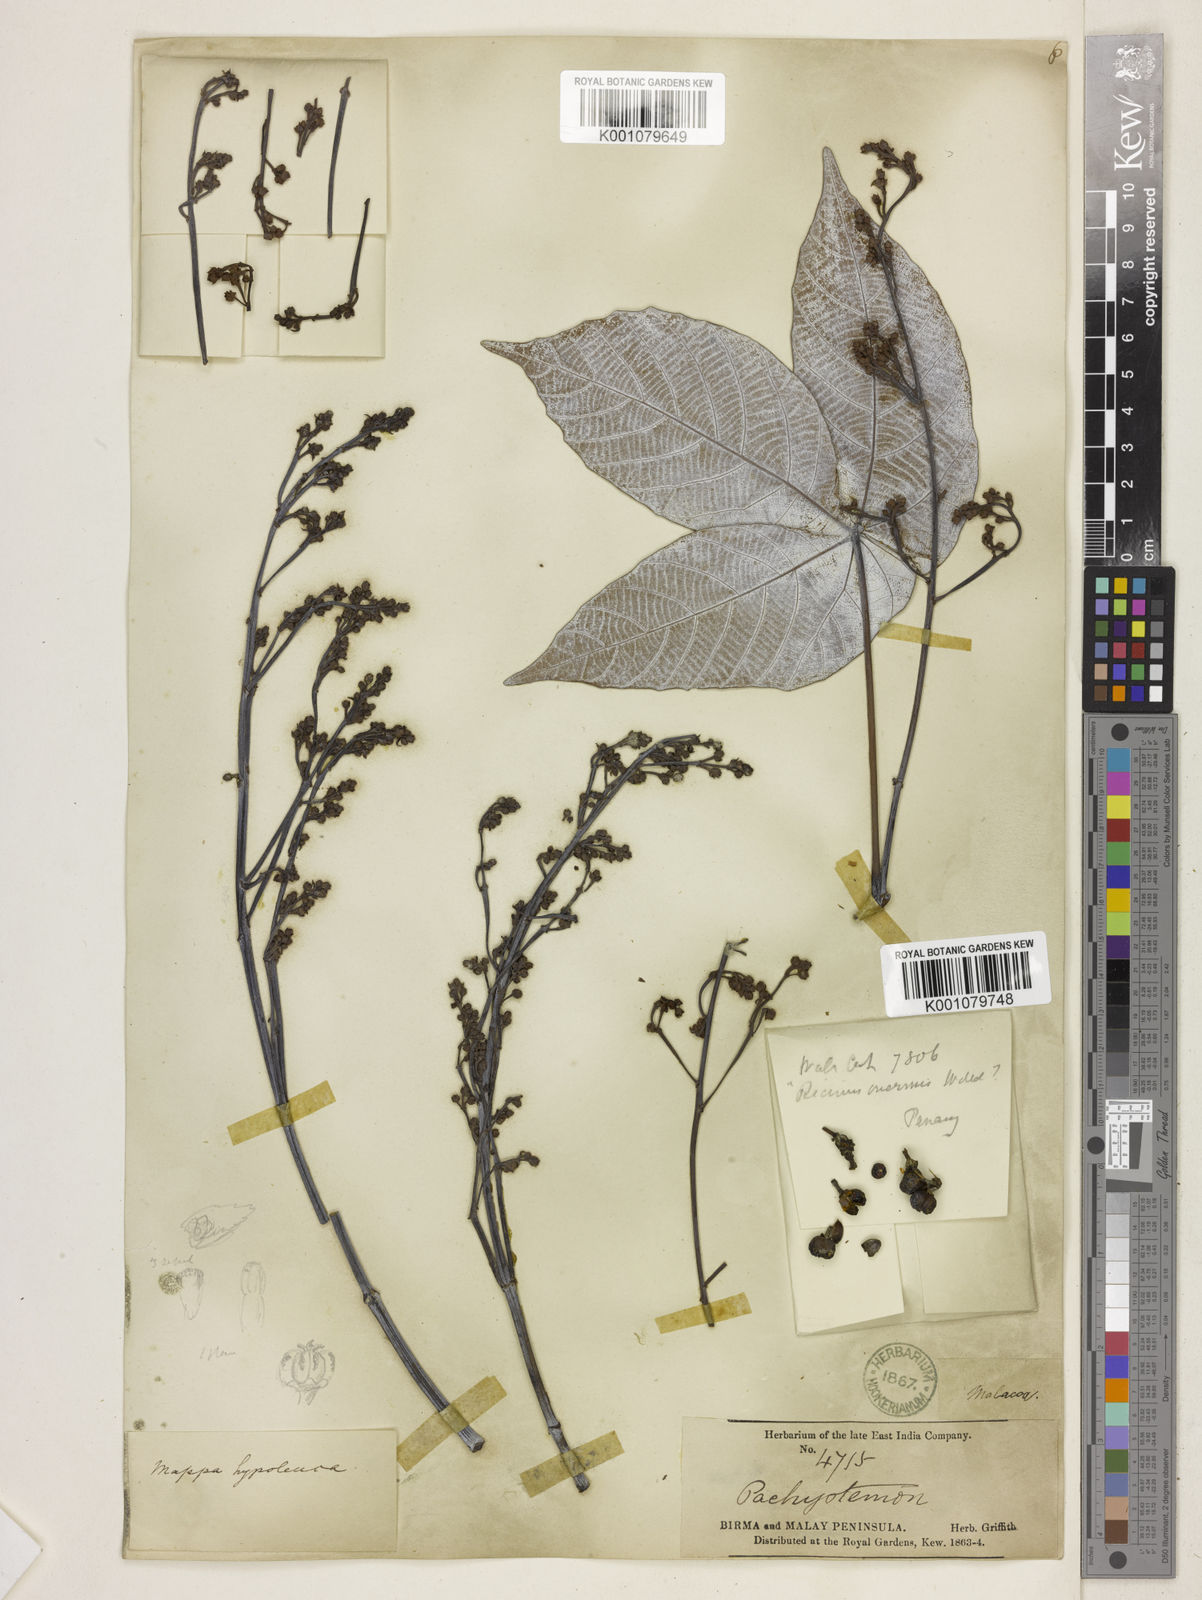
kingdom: Plantae
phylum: Tracheophyta
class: Magnoliopsida
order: Malpighiales
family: Euphorbiaceae
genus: Macaranga
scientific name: Macaranga
